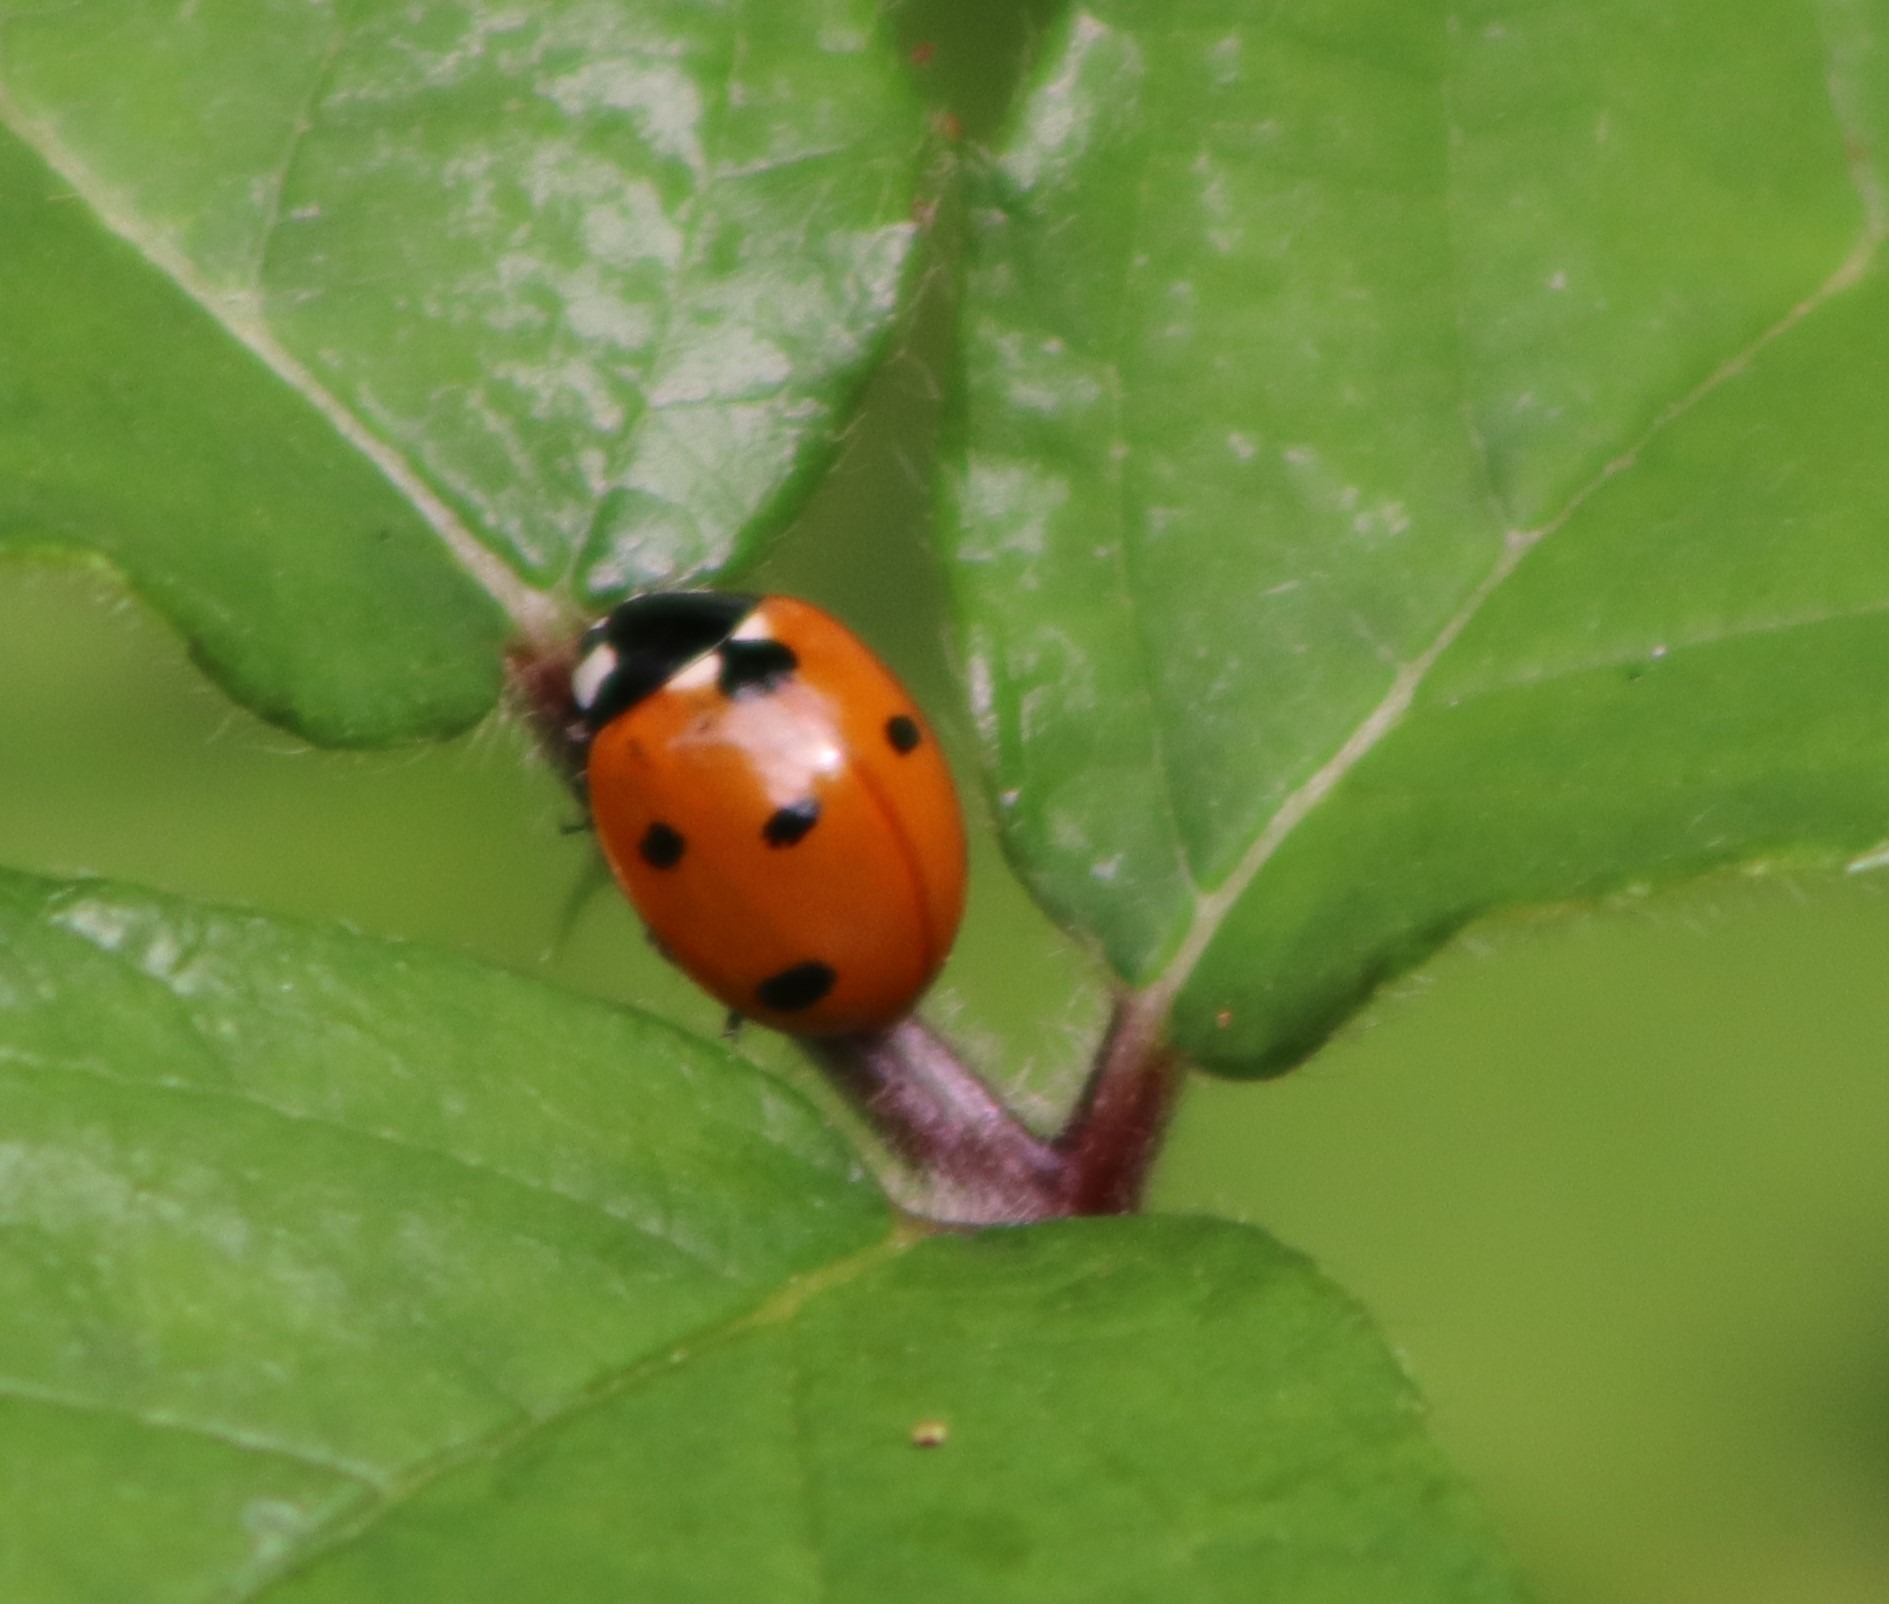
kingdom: Animalia
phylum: Arthropoda
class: Insecta
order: Coleoptera
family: Coccinellidae
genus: Coccinella
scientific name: Coccinella septempunctata
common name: Syvplettet mariehøne
